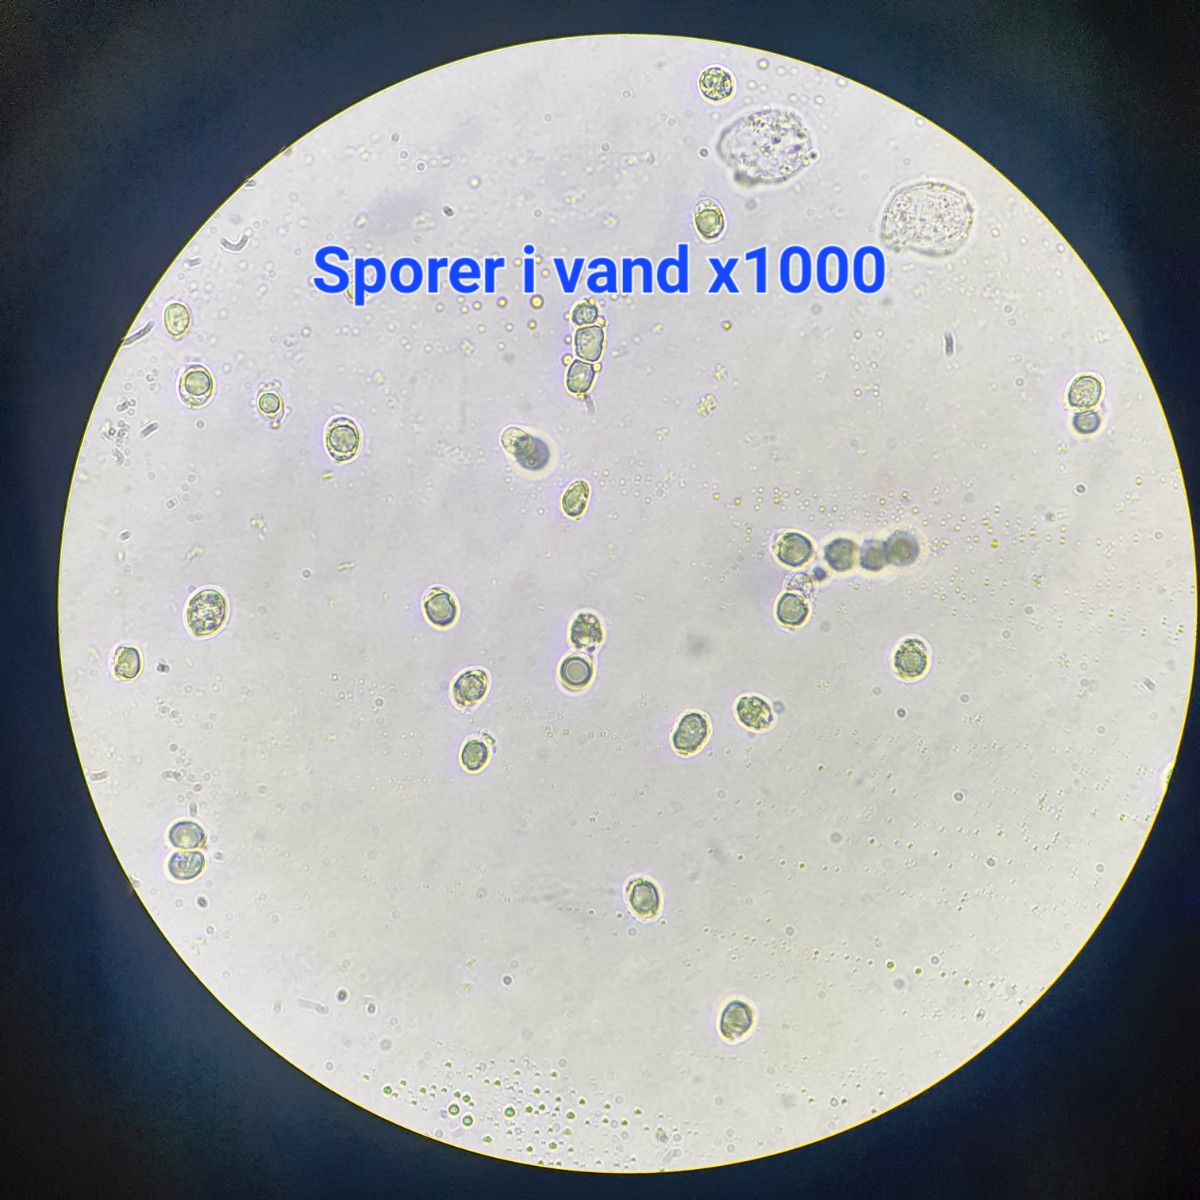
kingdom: Fungi
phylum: Basidiomycota
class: Agaricomycetes
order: Agaricales
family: Amanitaceae
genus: Amanita
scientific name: Amanita rubescens
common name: rødmende fluesvamp
